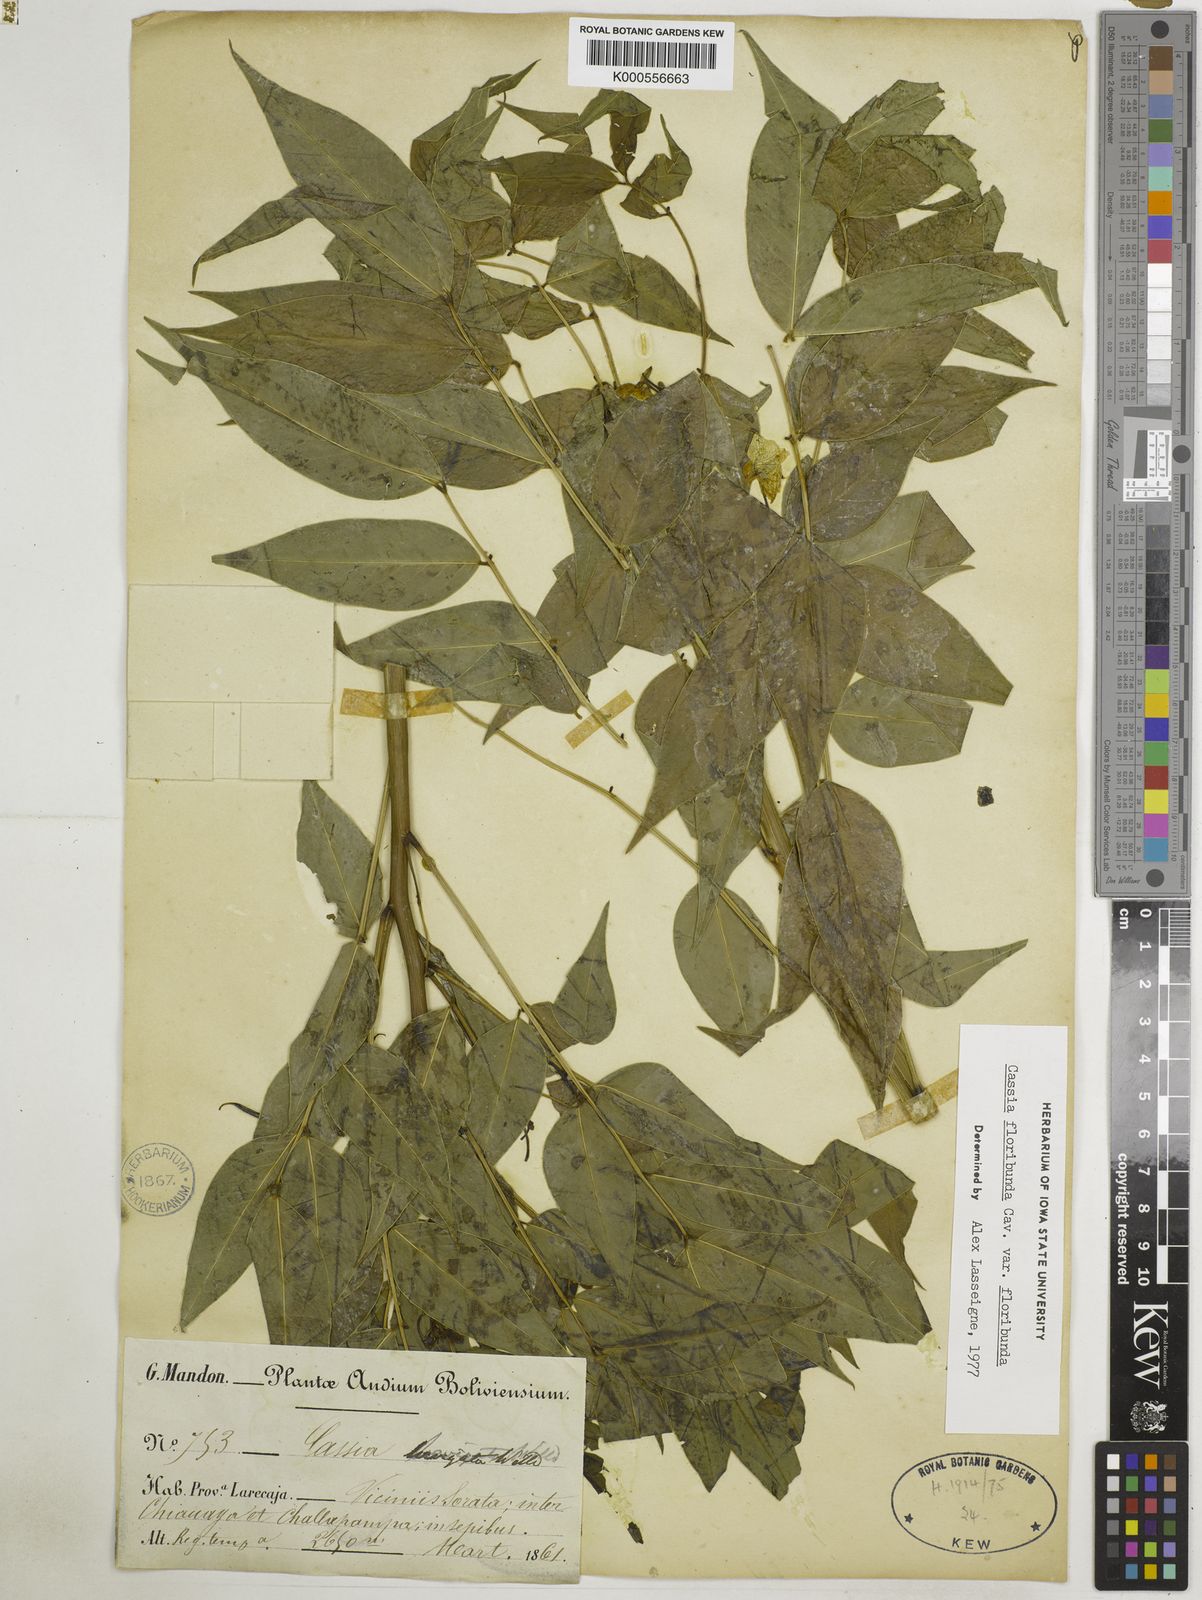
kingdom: Plantae
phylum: Tracheophyta
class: Magnoliopsida
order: Fabales
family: Fabaceae
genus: Senna
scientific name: Senna floribunda
